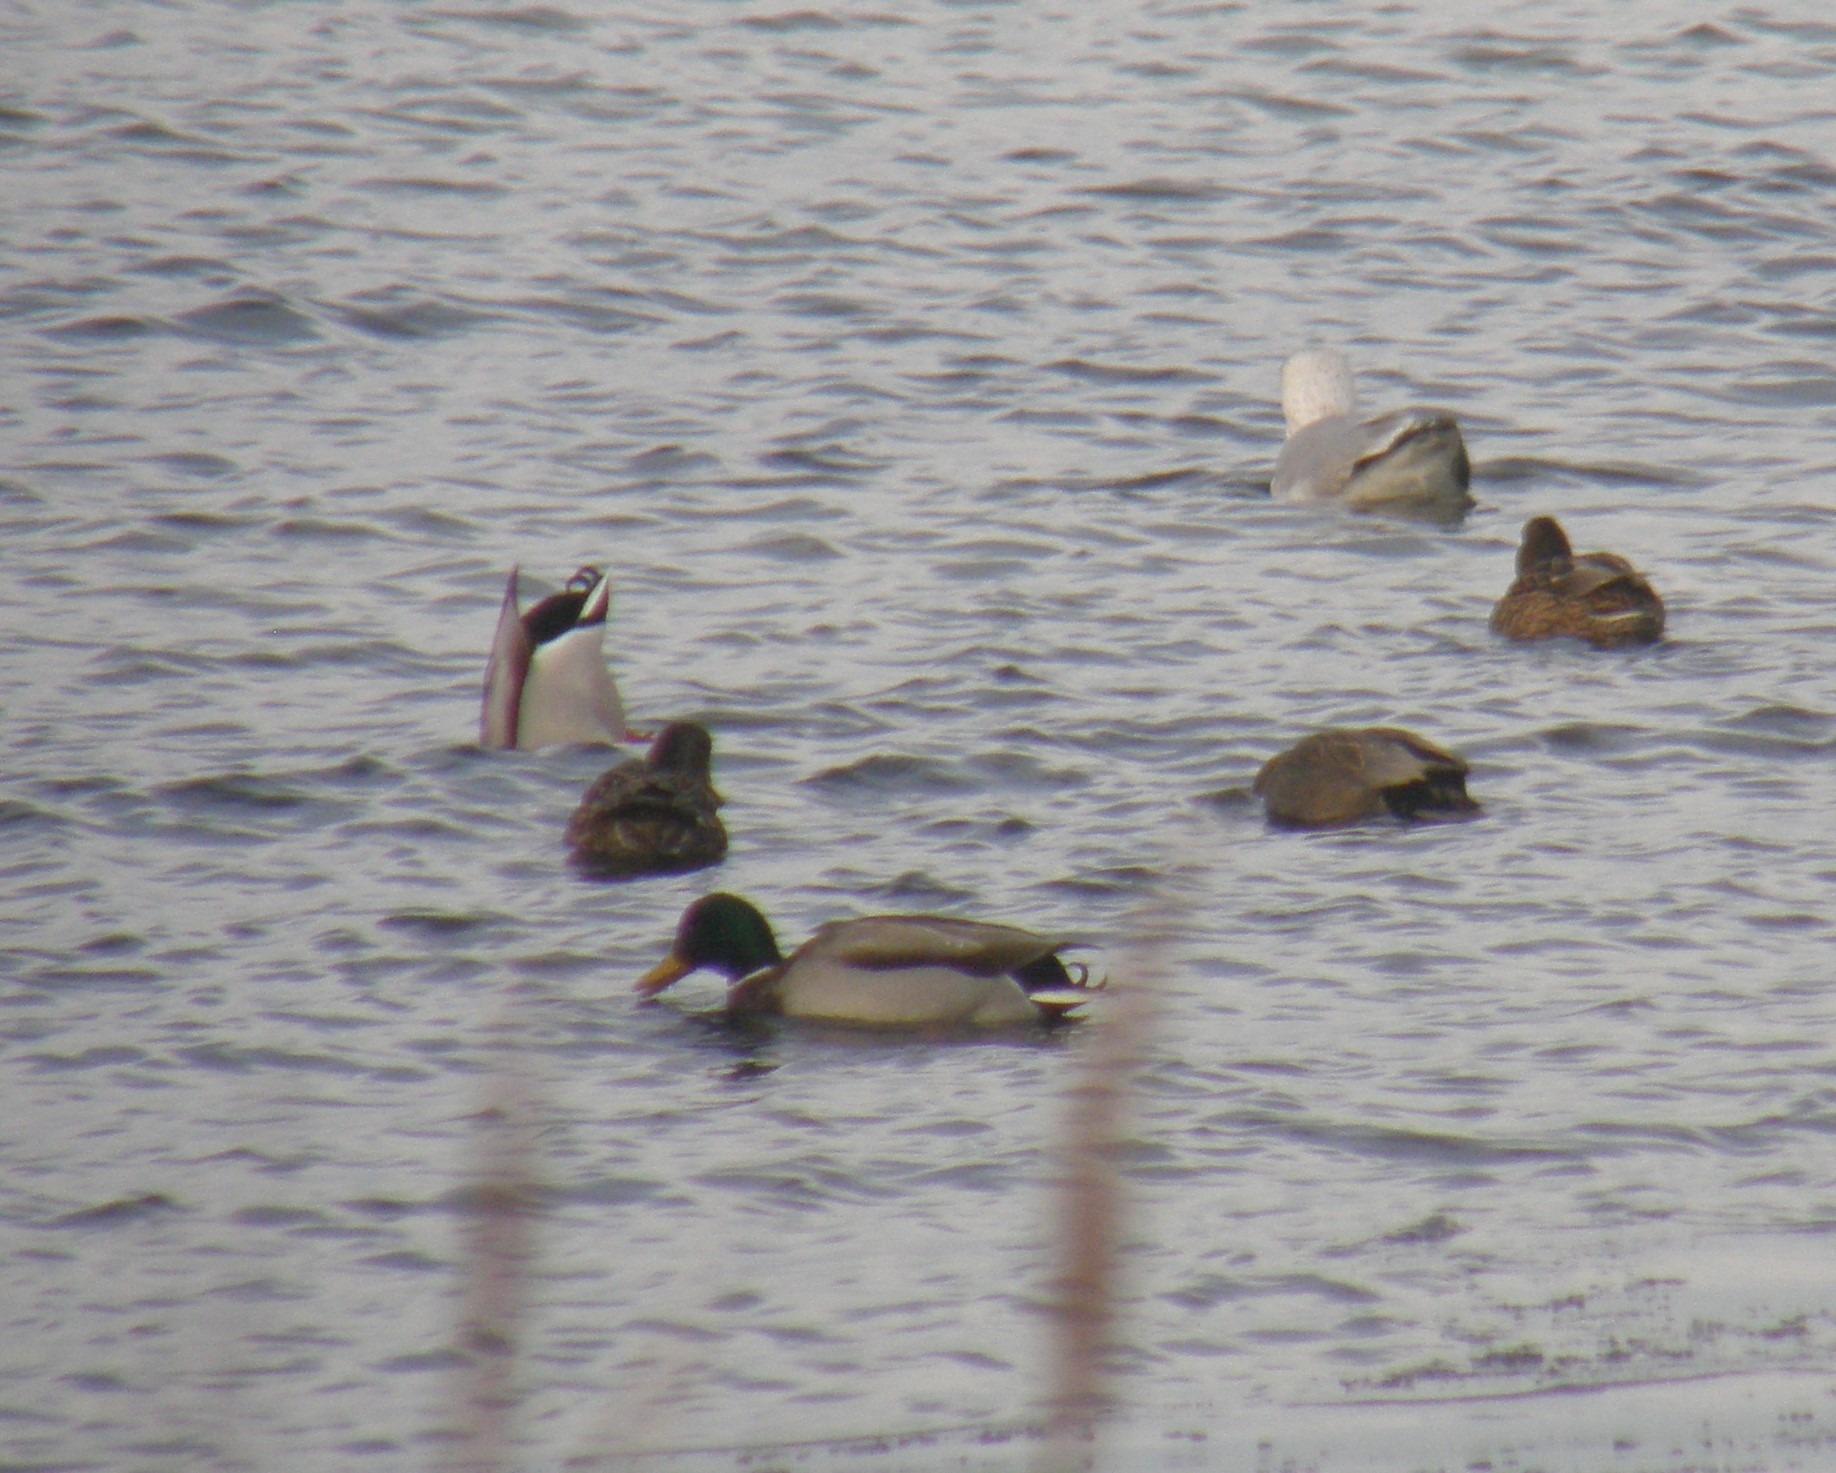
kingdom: Animalia
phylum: Chordata
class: Aves
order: Anseriformes
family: Anatidae
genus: Anas
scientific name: Anas platyrhynchos
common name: Gråand
